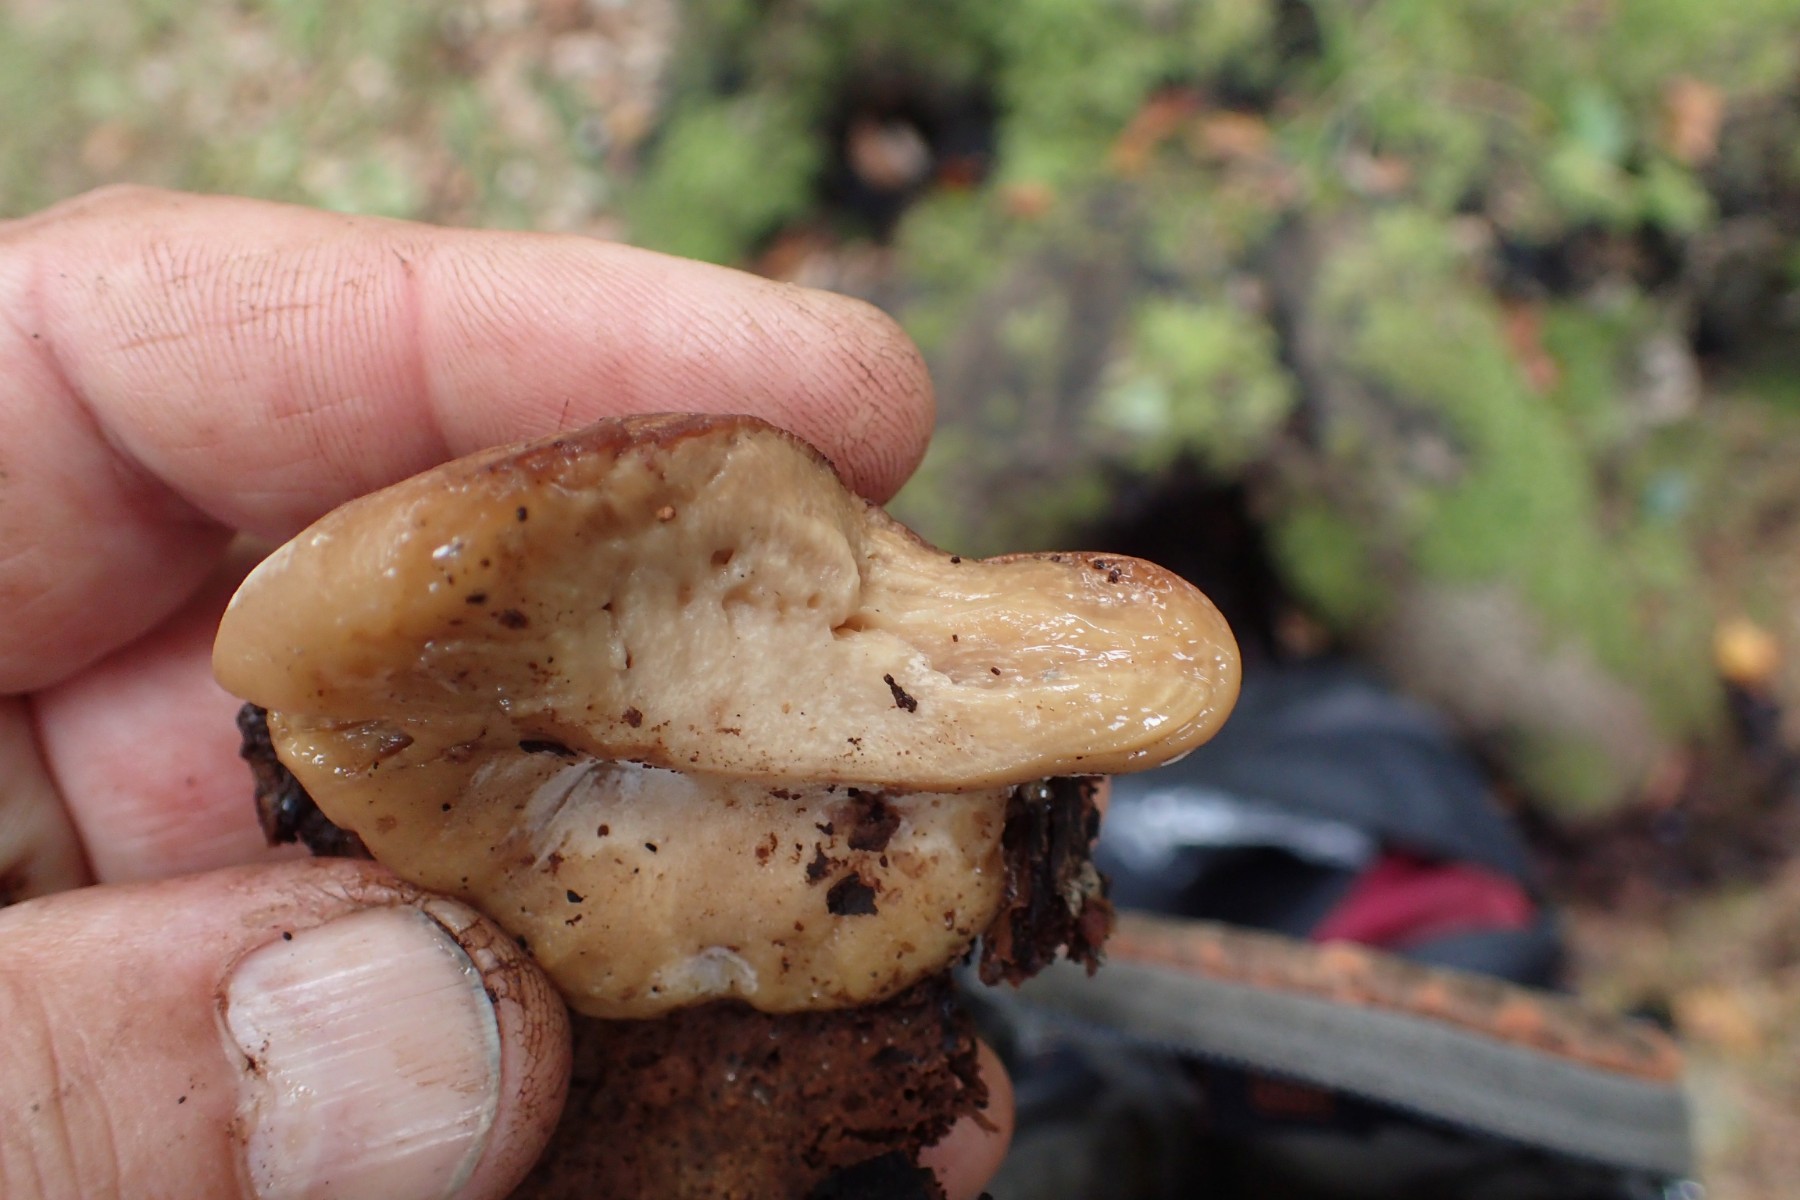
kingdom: Fungi
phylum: Basidiomycota
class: Agaricomycetes
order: Polyporales
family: Ischnodermataceae
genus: Ischnoderma
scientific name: Ischnoderma benzoinum
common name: gran-tjæreporesvamp
